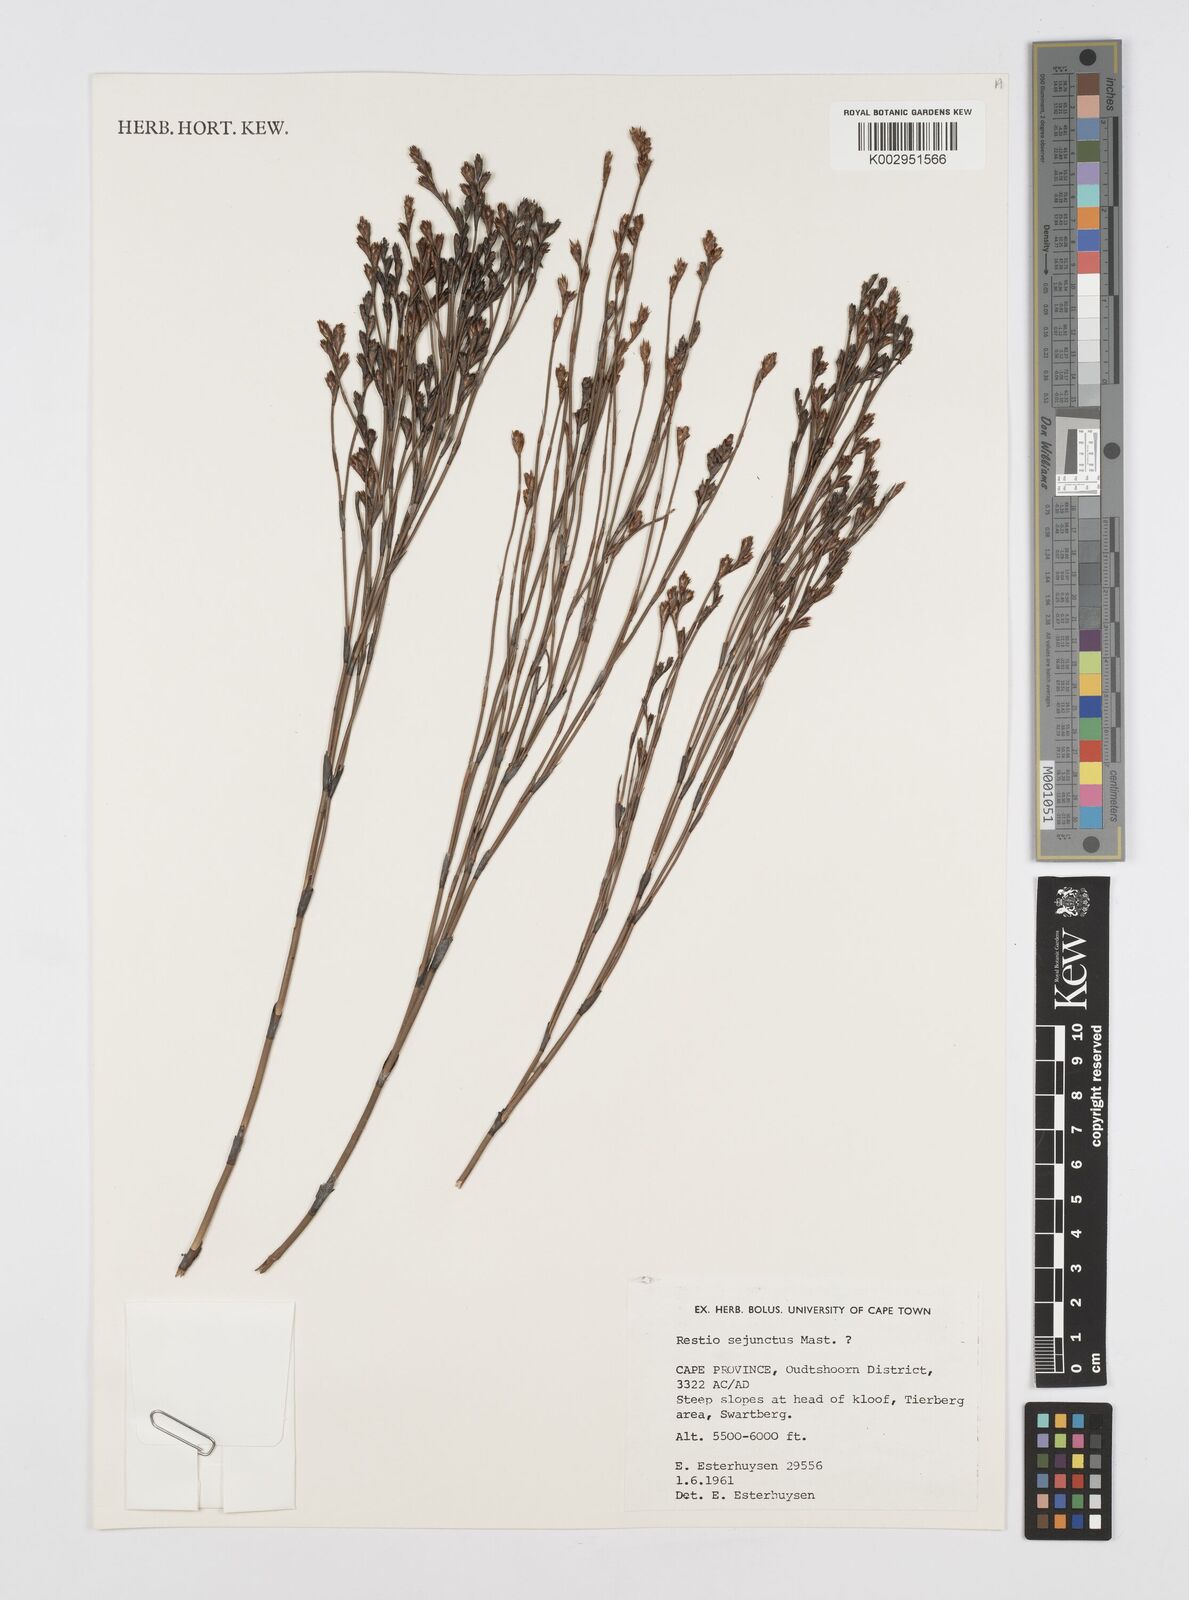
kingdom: Plantae
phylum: Tracheophyta
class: Liliopsida
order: Poales
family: Restionaceae
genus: Restio
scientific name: Restio sejunctus
